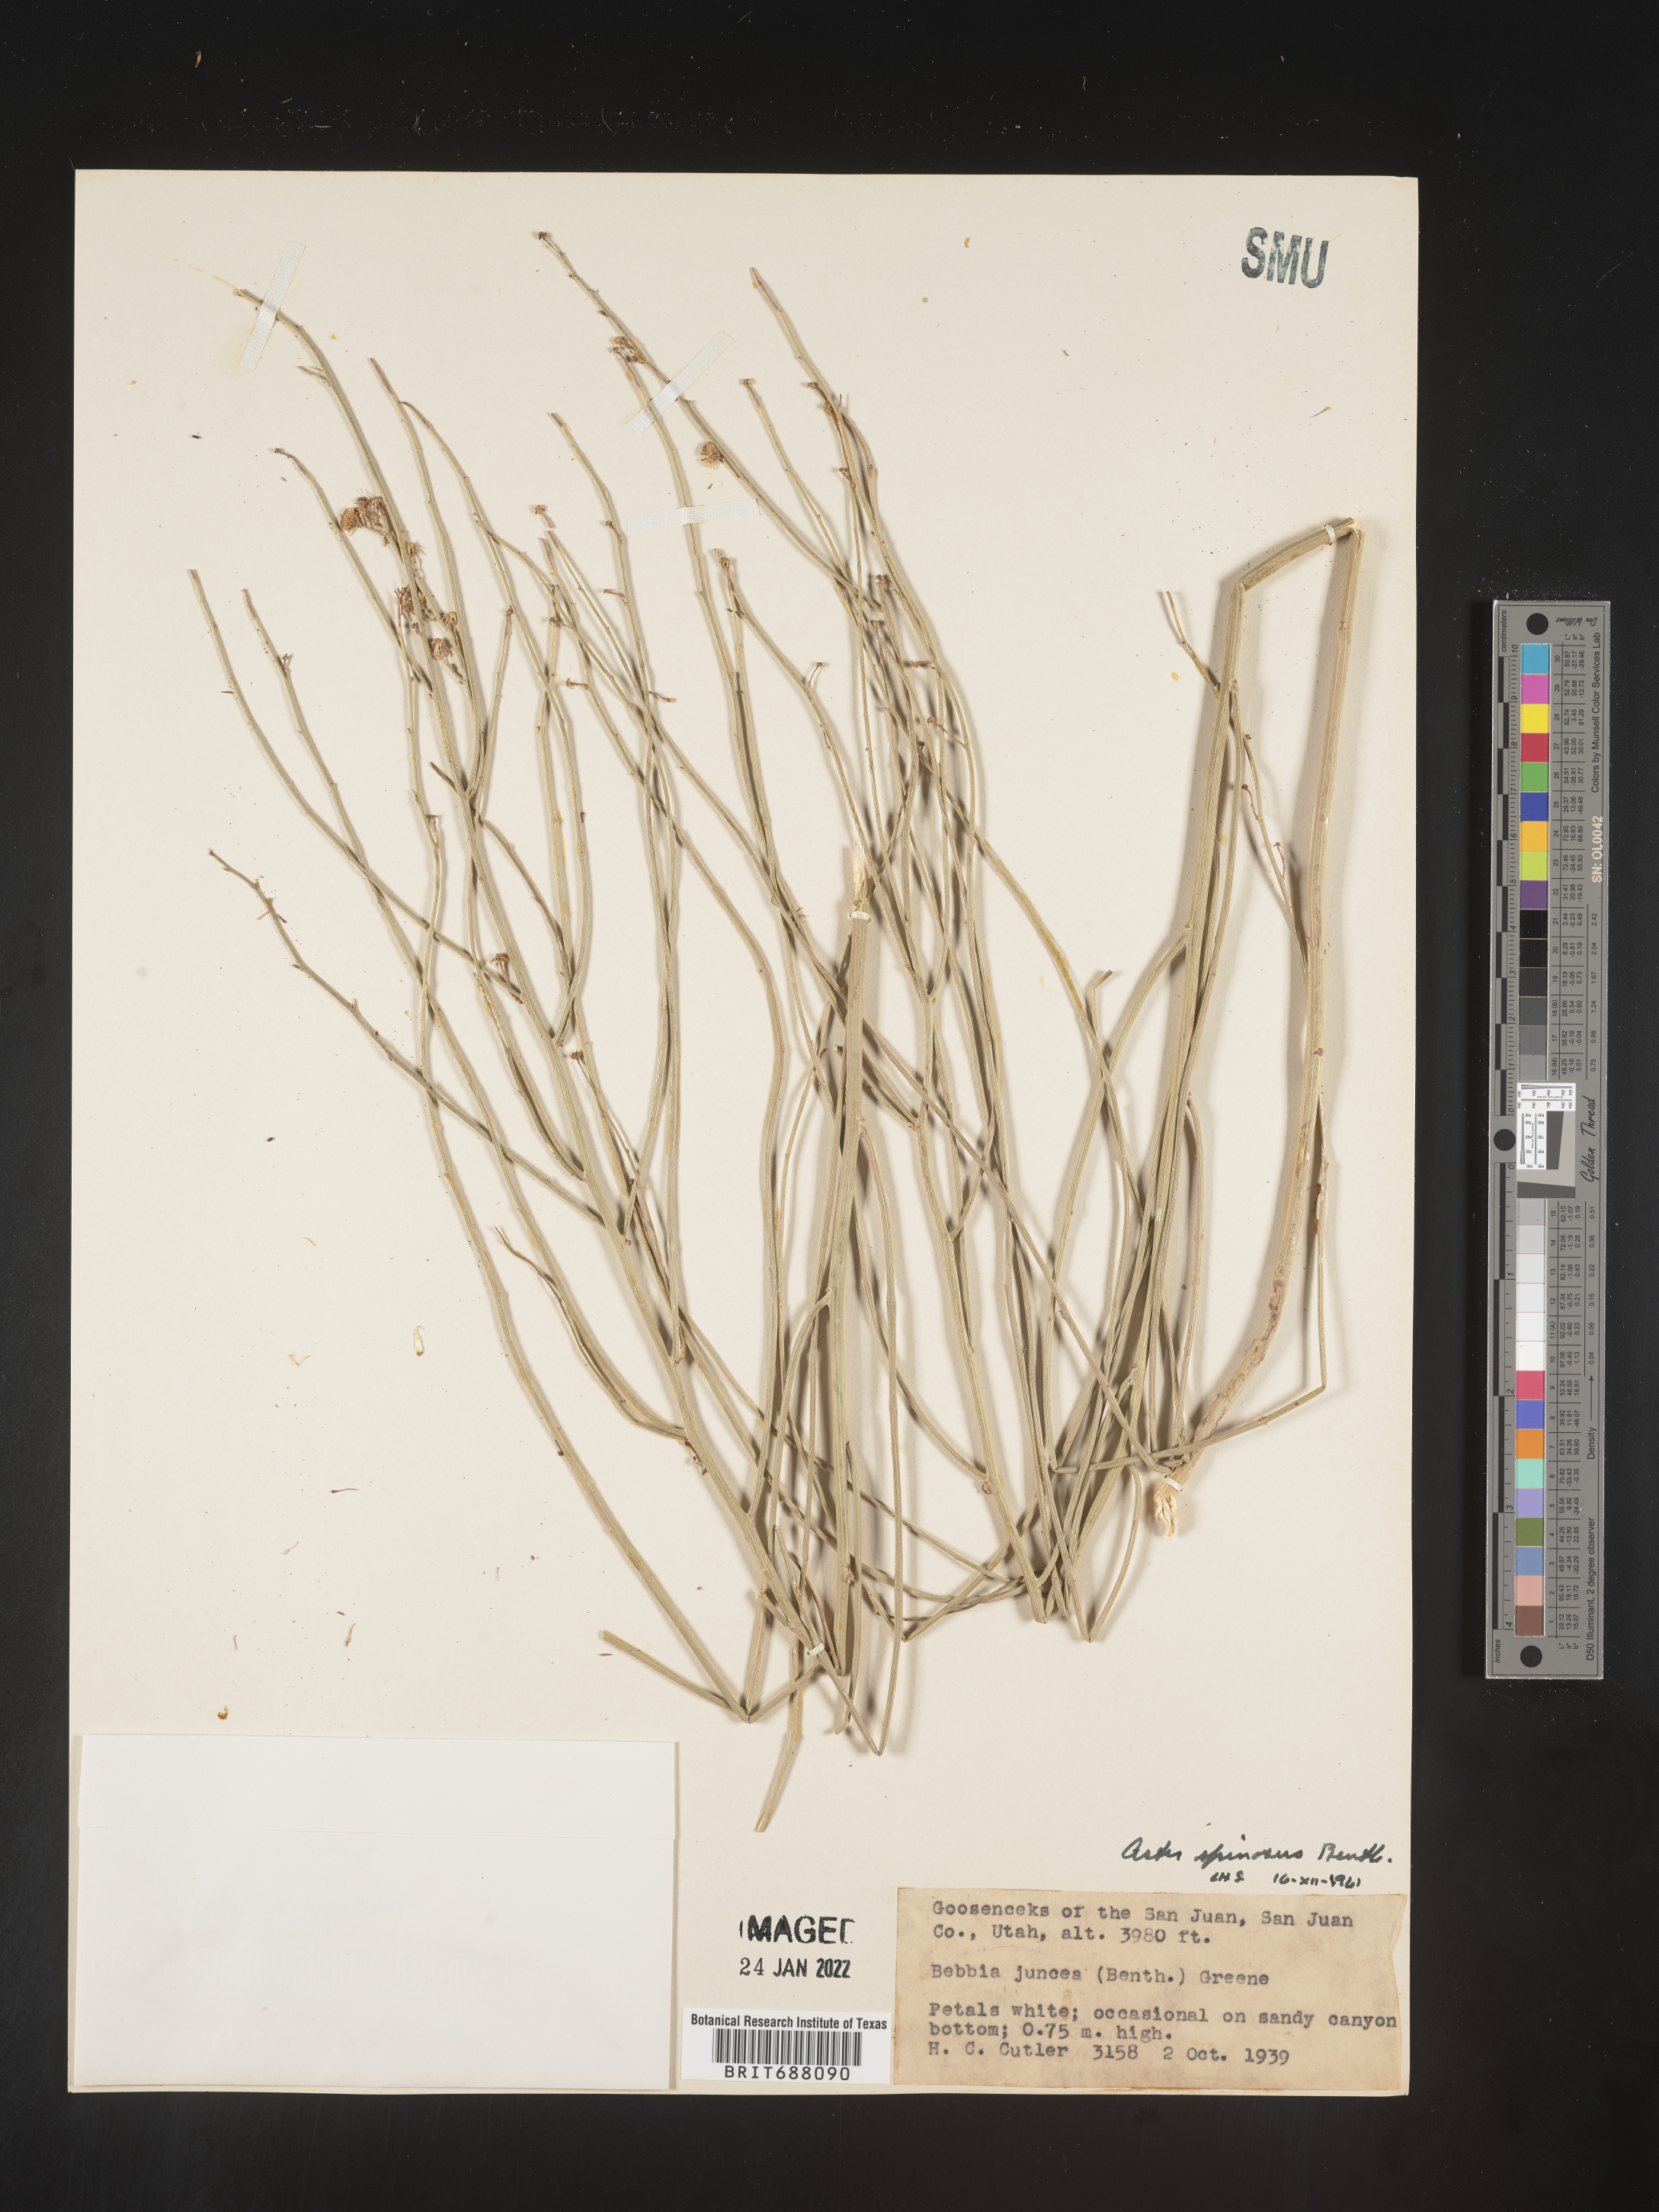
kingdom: Plantae
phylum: Tracheophyta
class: Magnoliopsida
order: Asterales
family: Asteraceae
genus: Chloracantha
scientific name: Chloracantha spinosa
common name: Mexican devilweed
